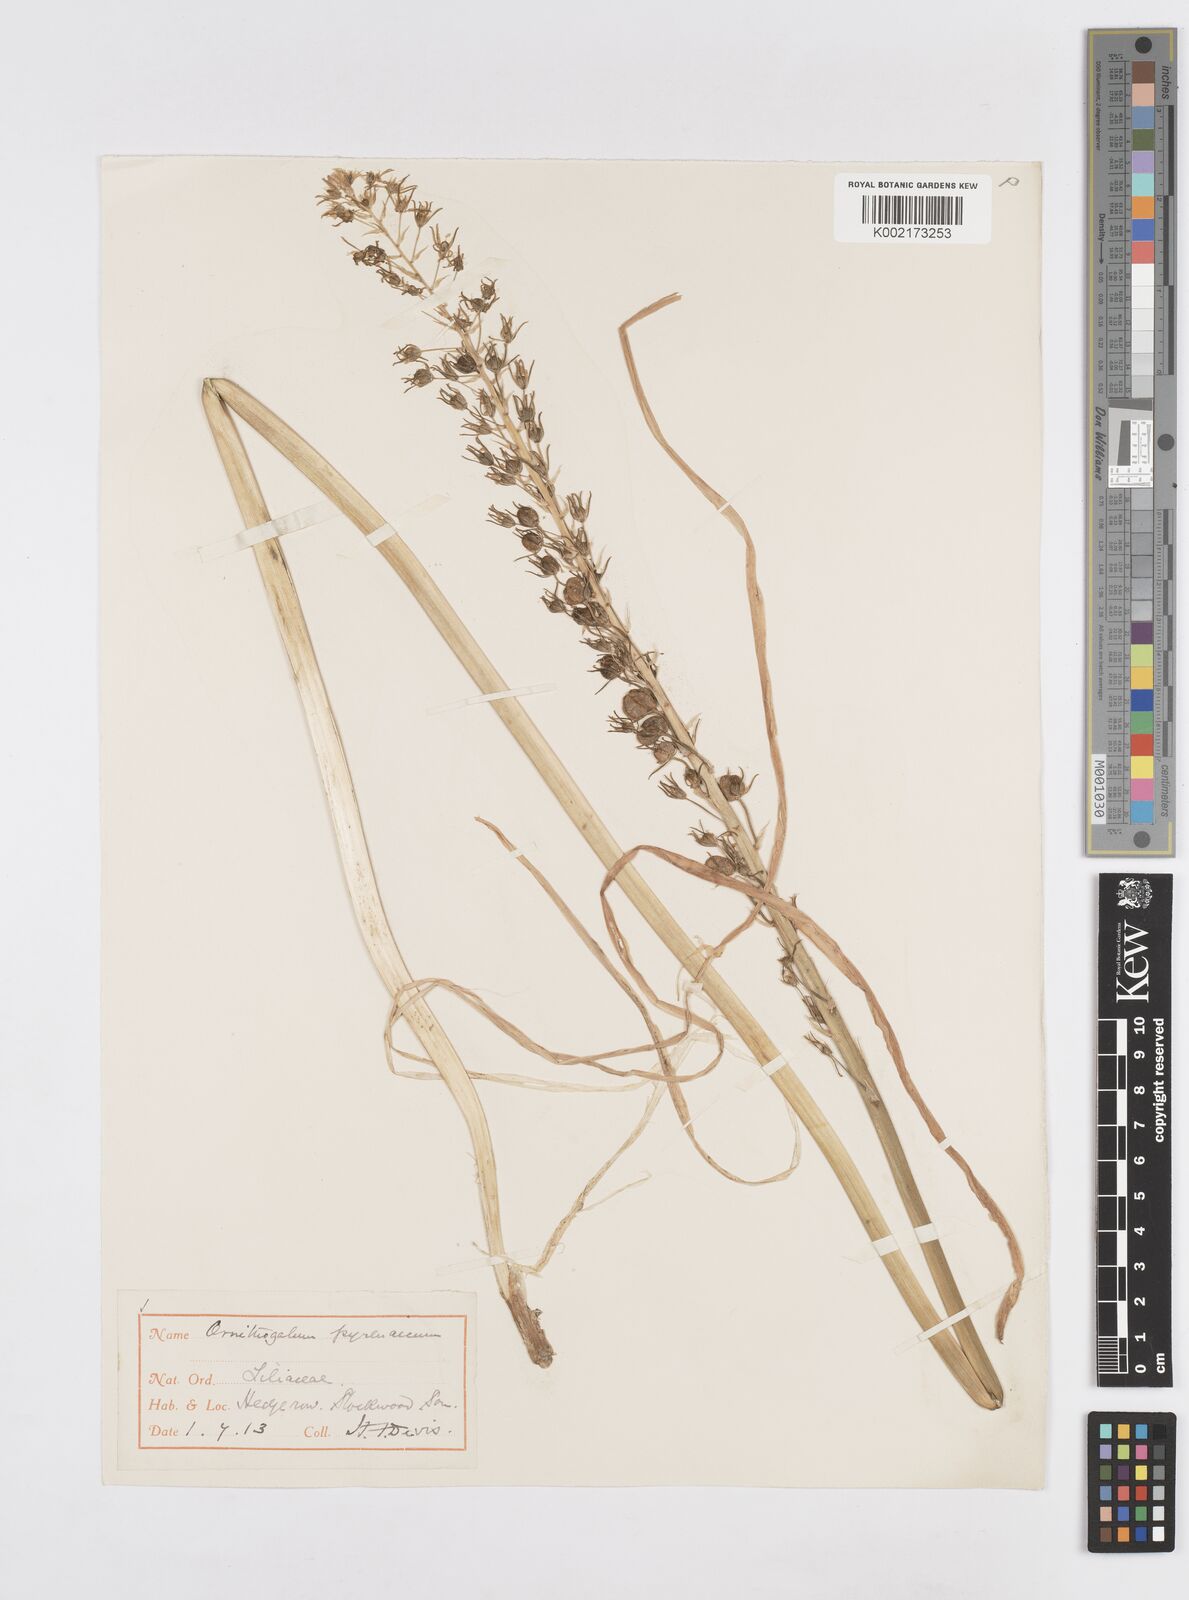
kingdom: Plantae
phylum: Tracheophyta
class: Liliopsida
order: Asparagales
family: Asparagaceae
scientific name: Asparagaceae
